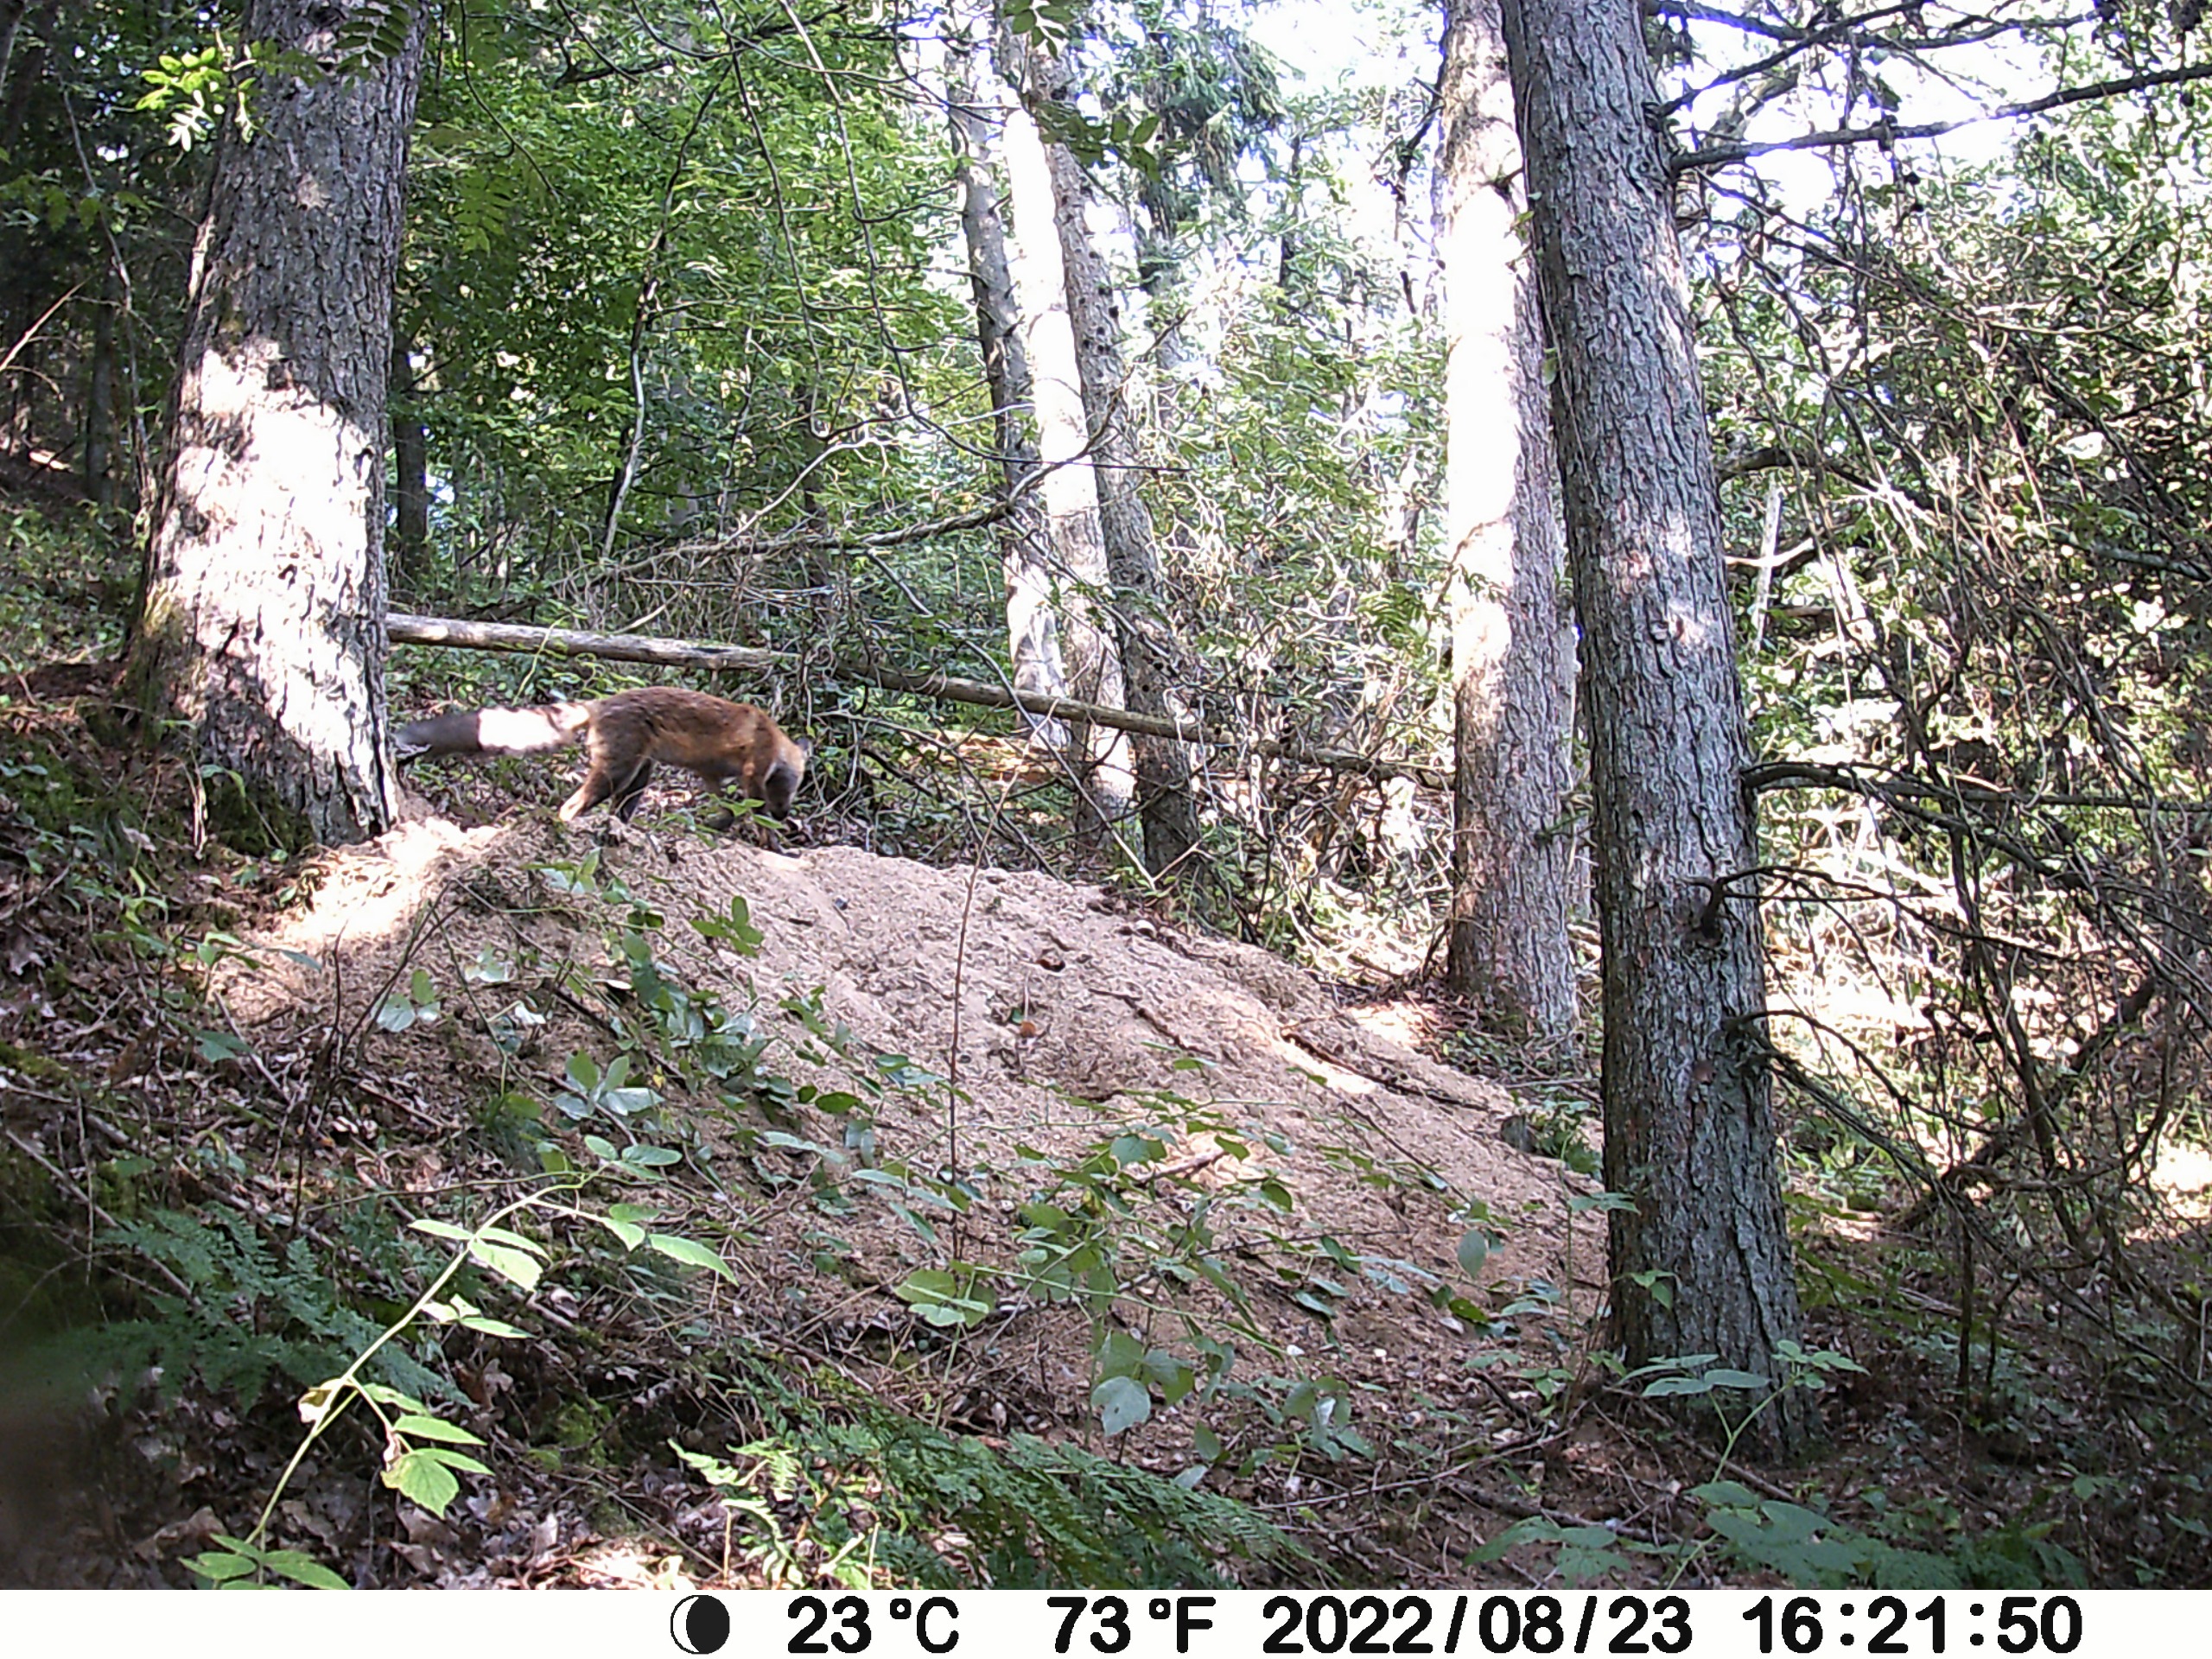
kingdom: Animalia
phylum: Chordata
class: Mammalia
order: Carnivora
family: Canidae
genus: Vulpes
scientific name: Vulpes vulpes
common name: Ræv
